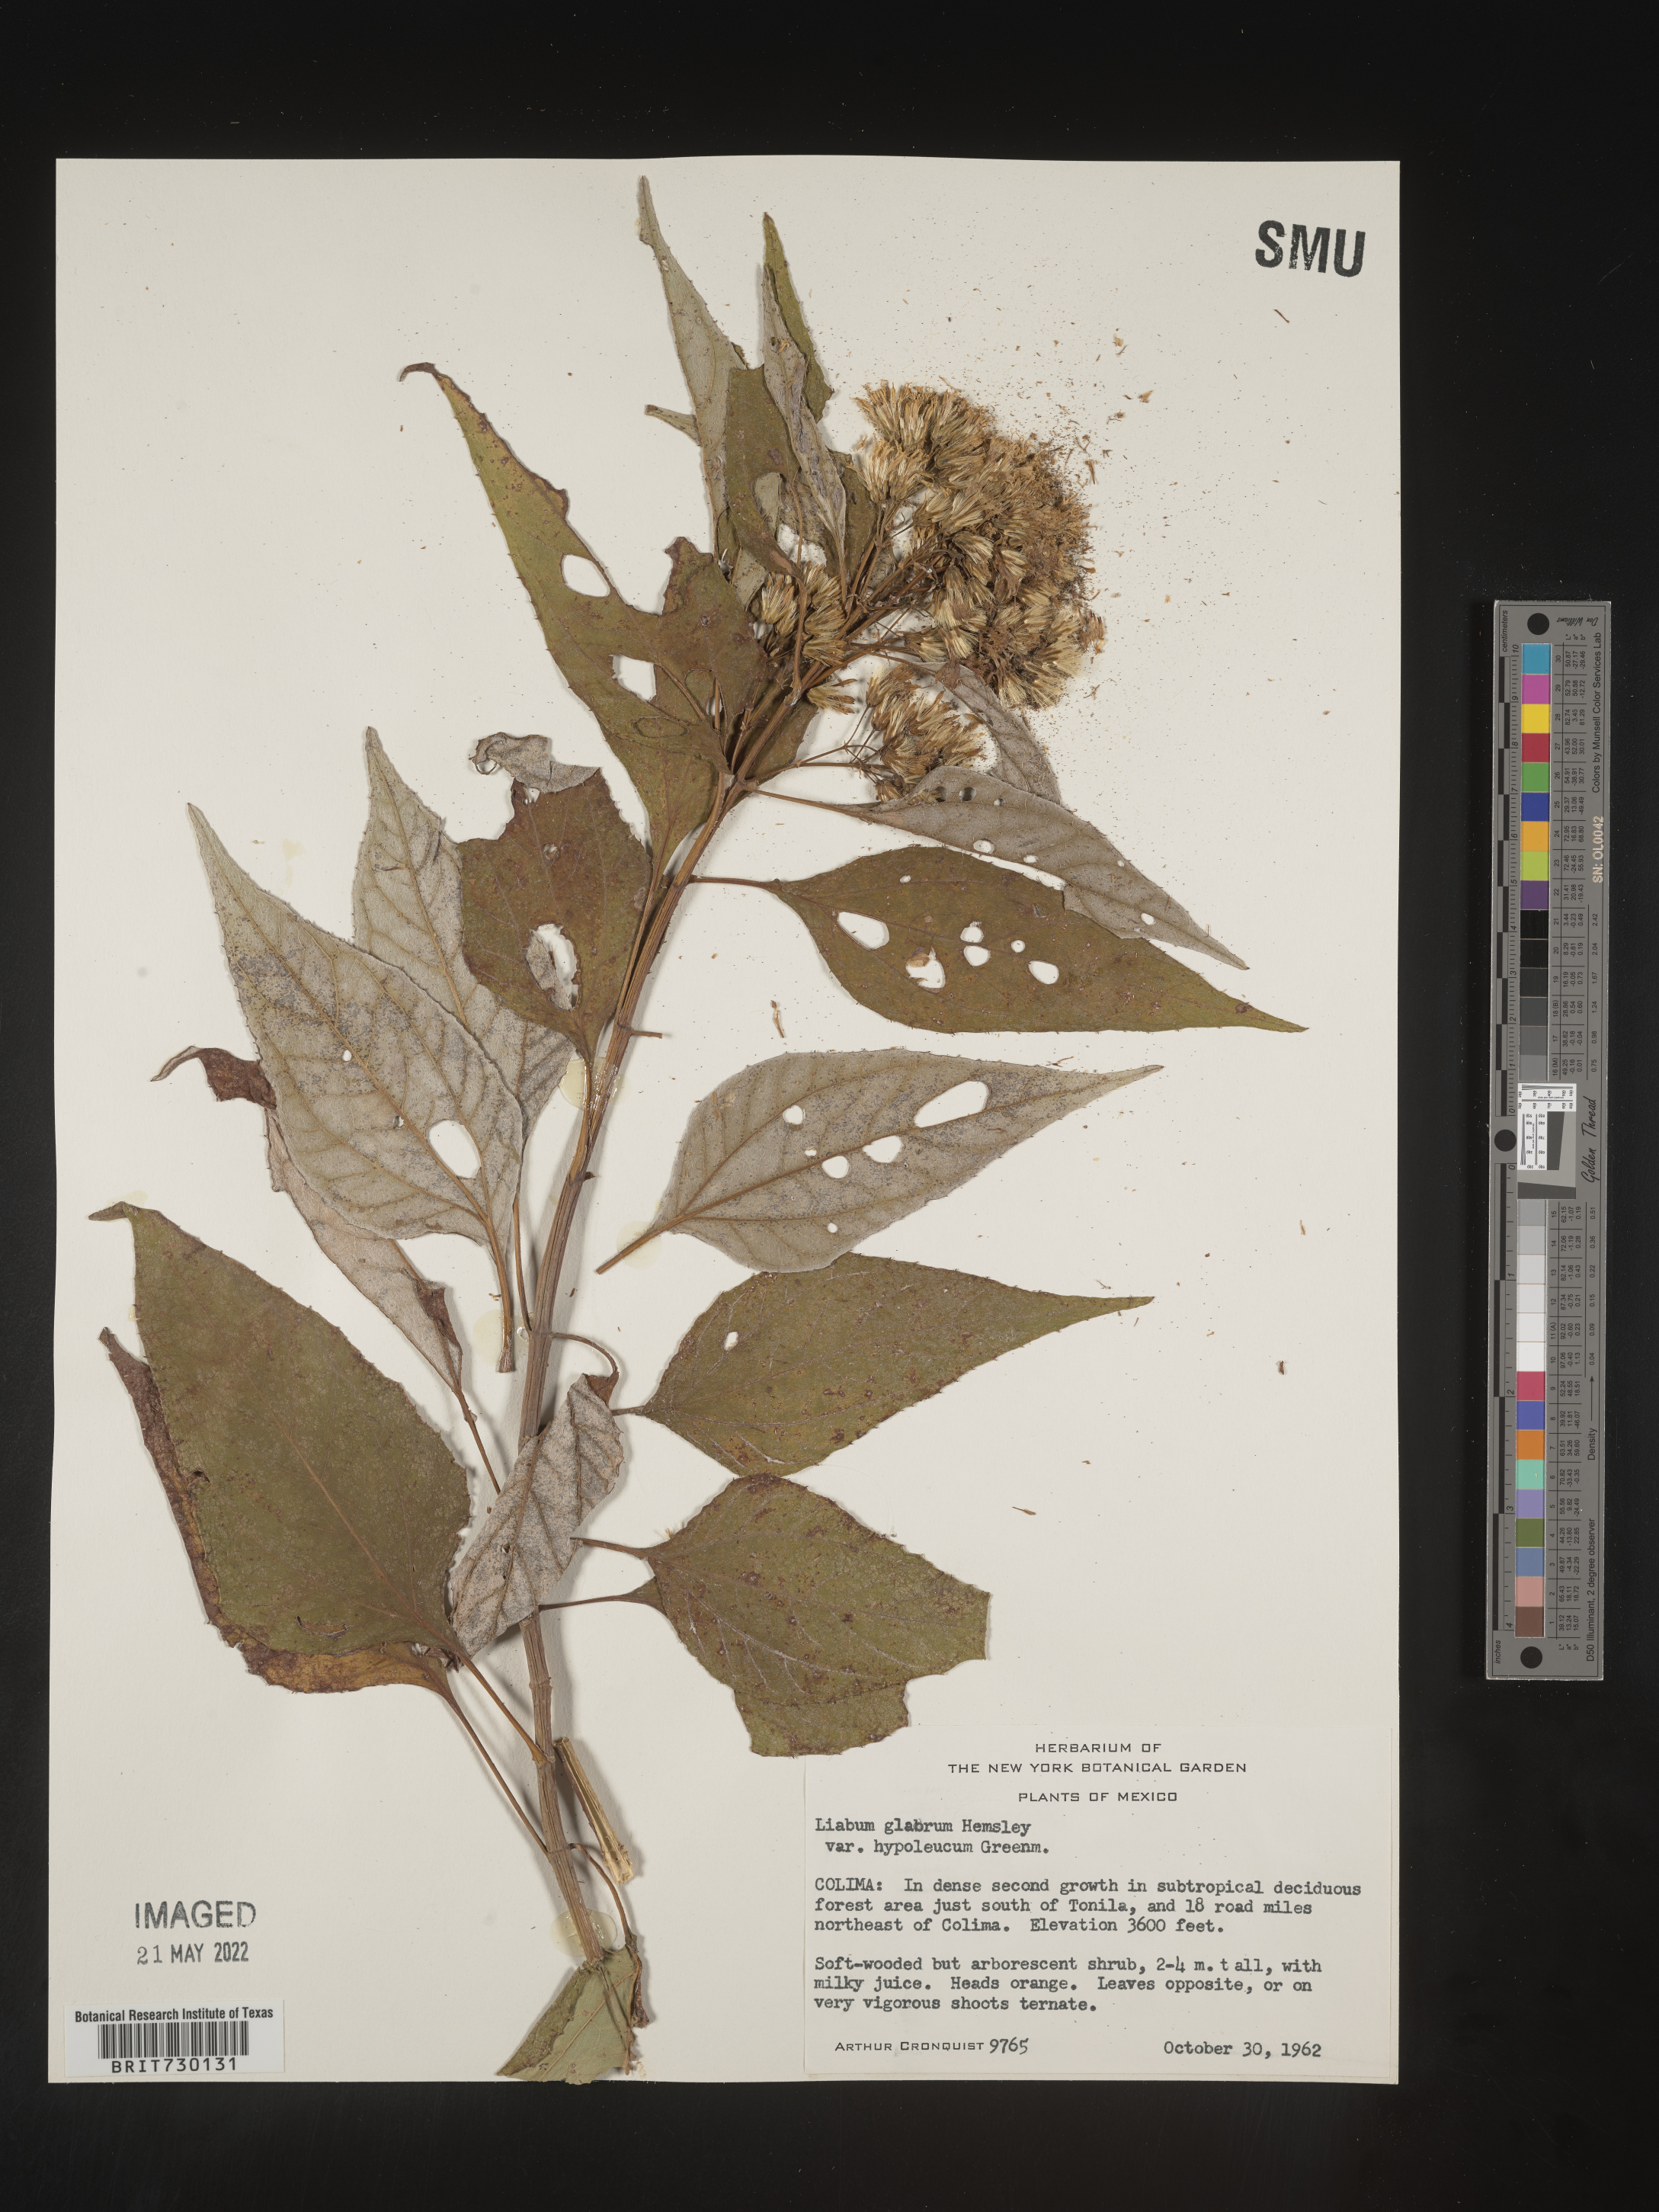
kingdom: Plantae
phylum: Tracheophyta
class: Magnoliopsida
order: Asterales
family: Asteraceae
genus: Liabum
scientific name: Liabum
